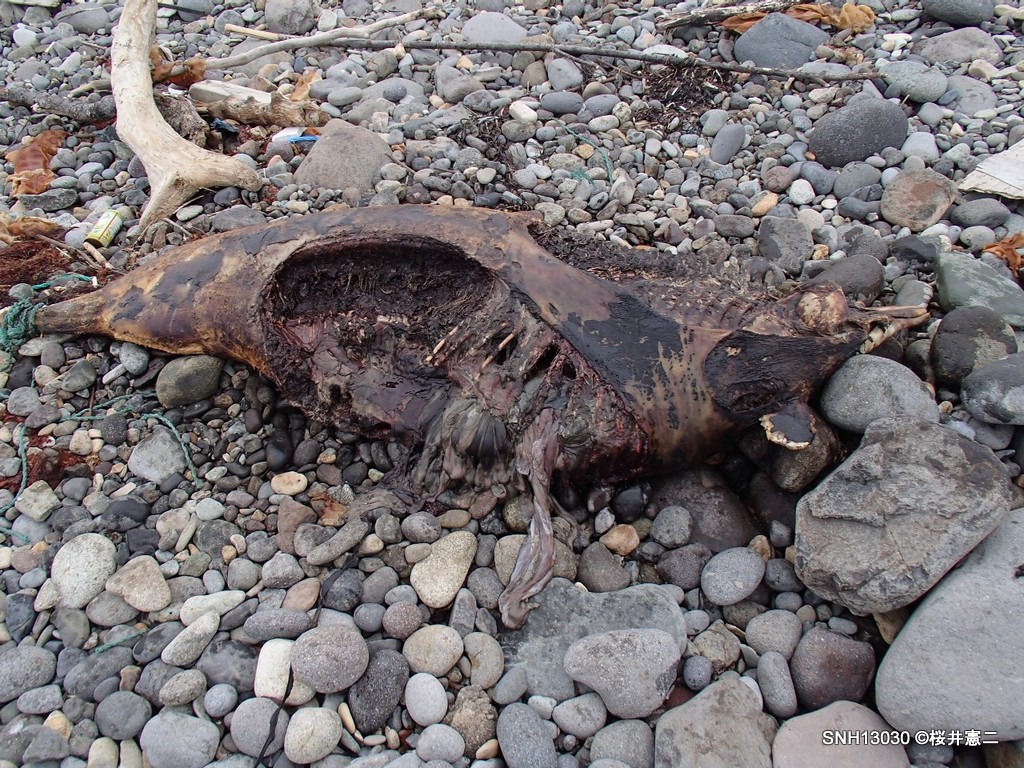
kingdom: Animalia
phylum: Chordata
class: Mammalia
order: Cetacea
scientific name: Cetacea
